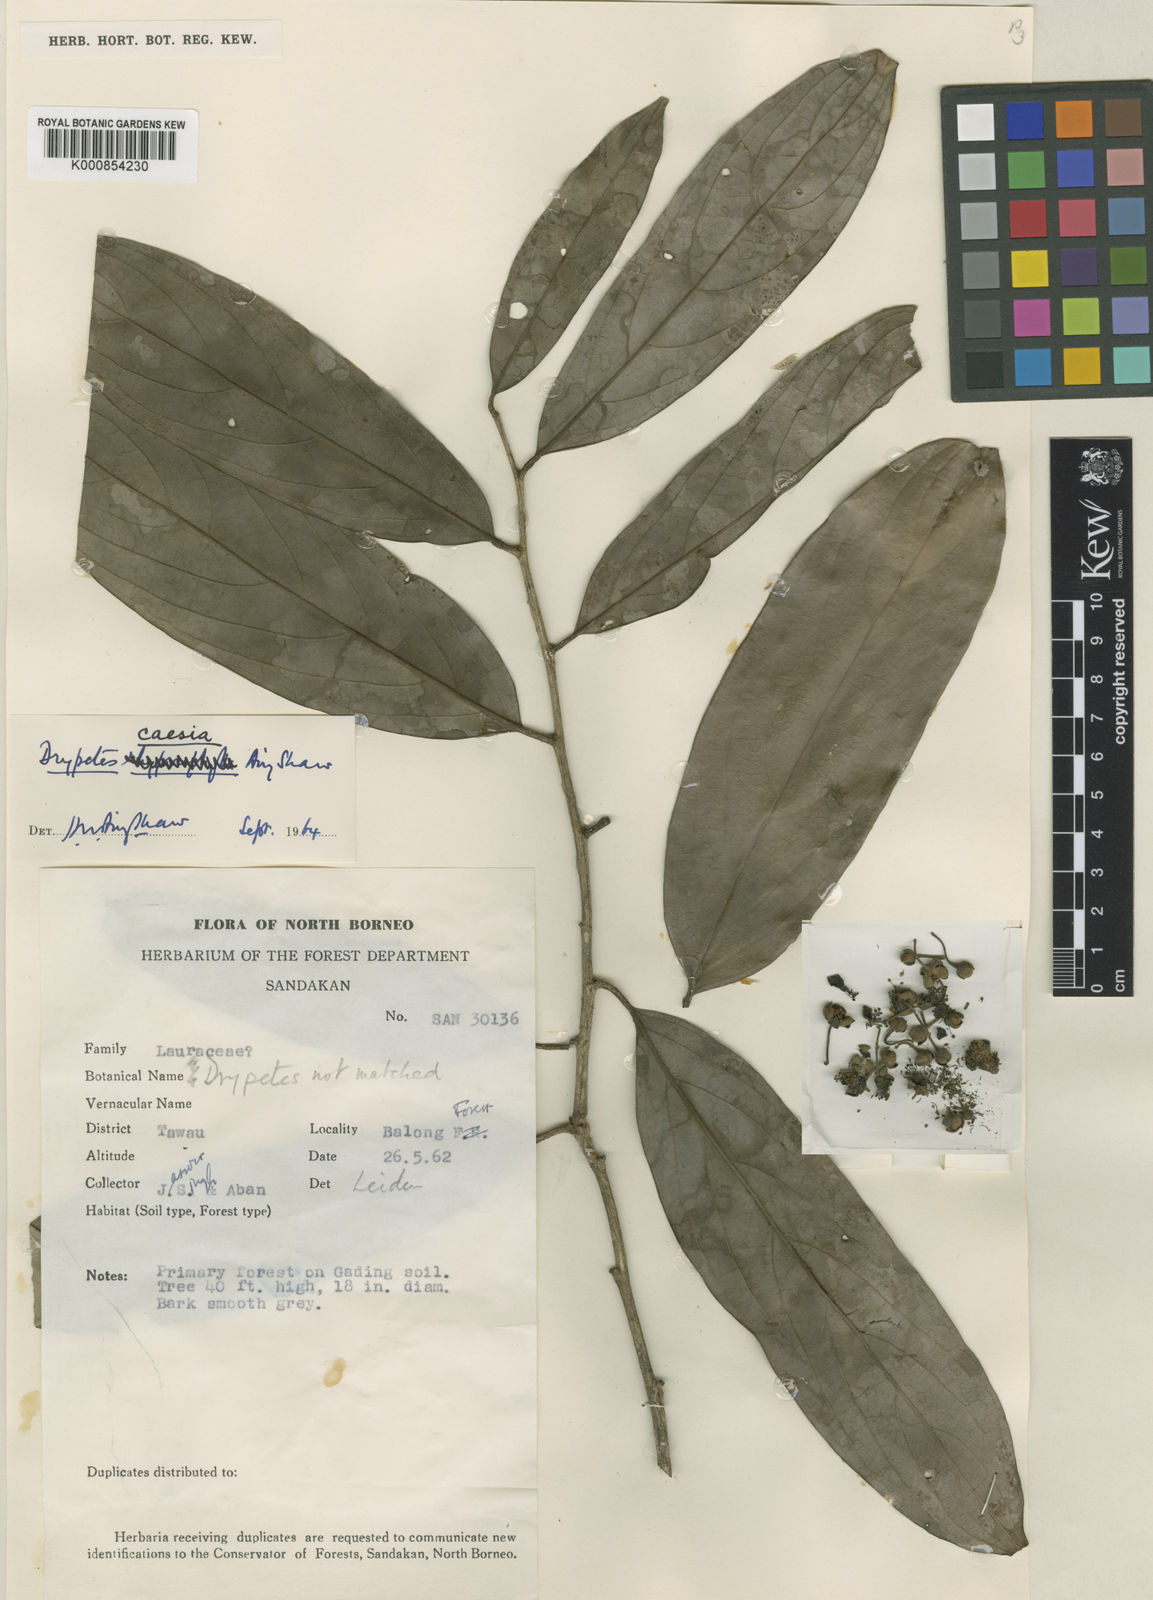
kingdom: Plantae
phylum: Tracheophyta
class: Magnoliopsida
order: Malpighiales
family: Putranjivaceae
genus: Drypetes
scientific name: Drypetes caesia
